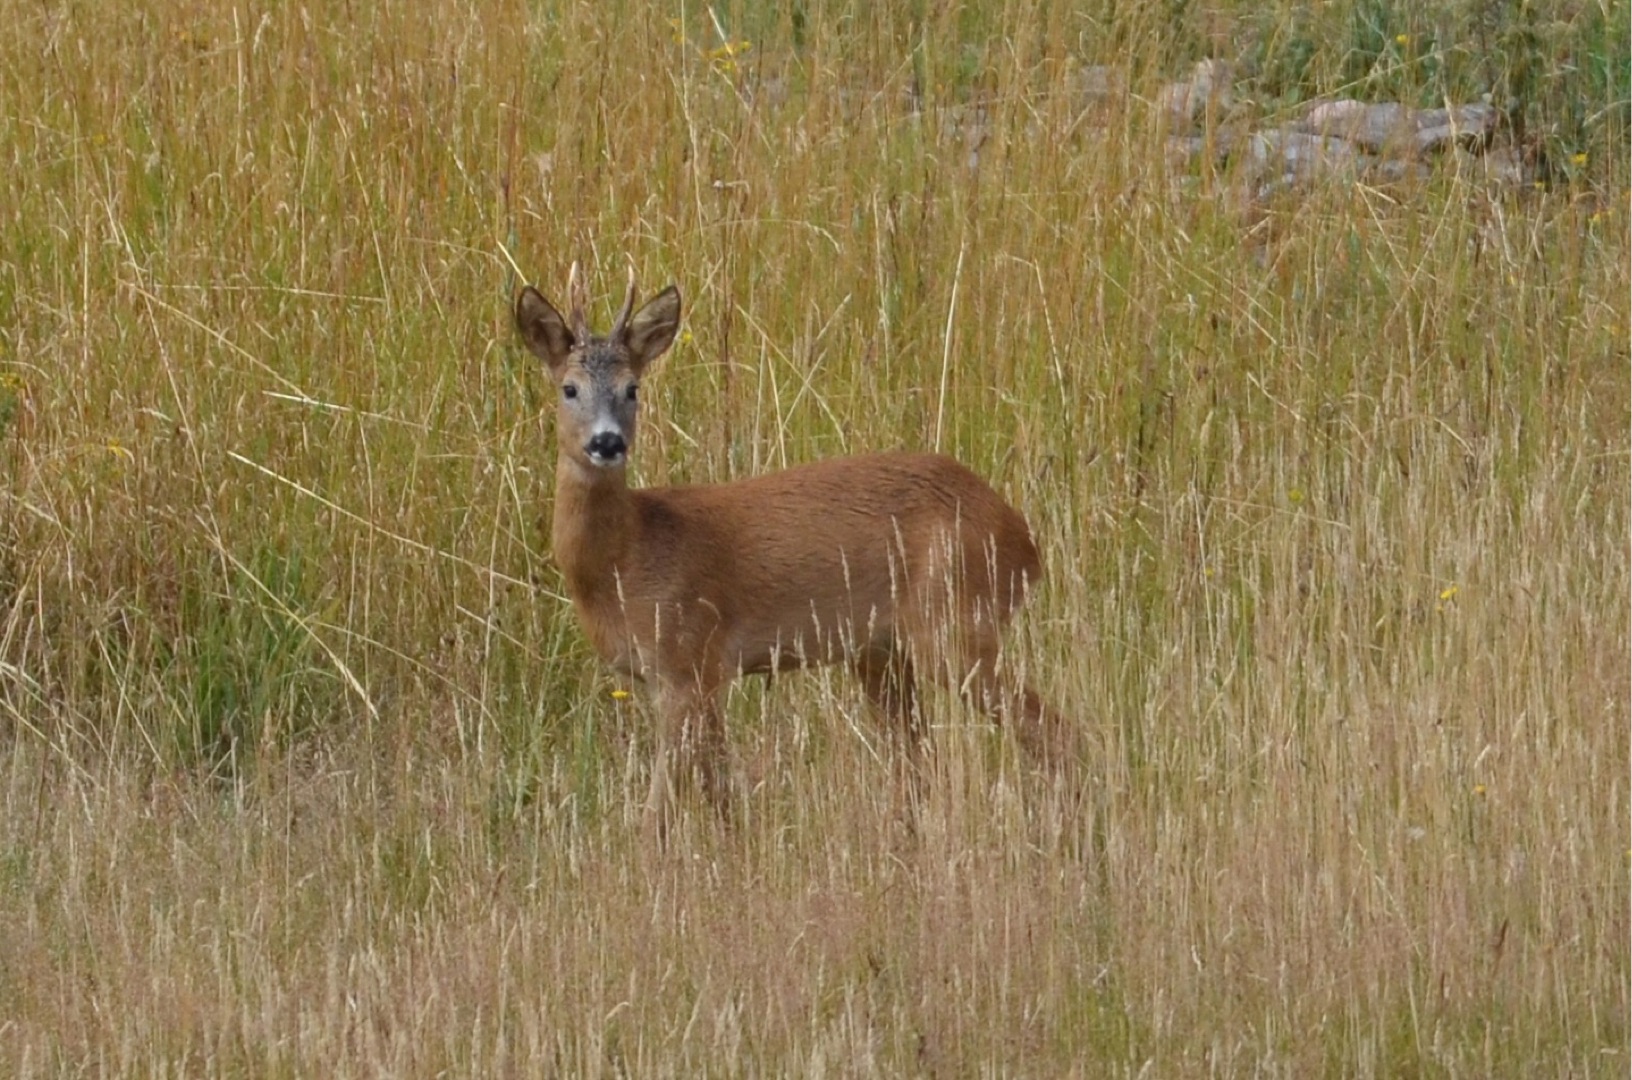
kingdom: Animalia
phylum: Chordata
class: Mammalia
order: Artiodactyla
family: Cervidae
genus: Capreolus
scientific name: Capreolus capreolus
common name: Rådyr
